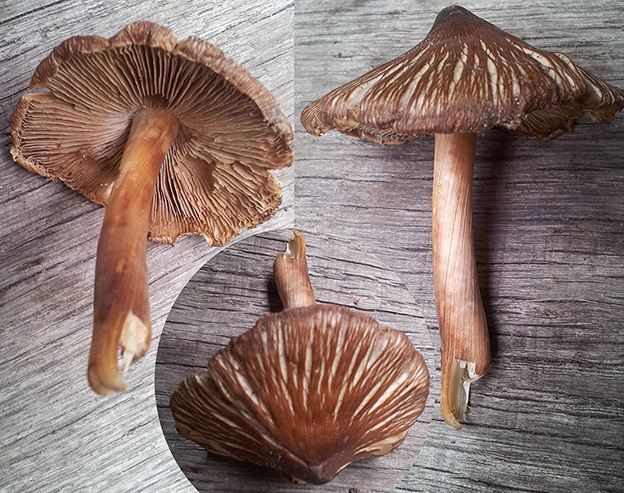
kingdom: Fungi
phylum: Basidiomycota
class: Agaricomycetes
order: Agaricales
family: Inocybaceae
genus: Inosperma
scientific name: Inosperma adaequatum
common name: vinrød trævlhat
